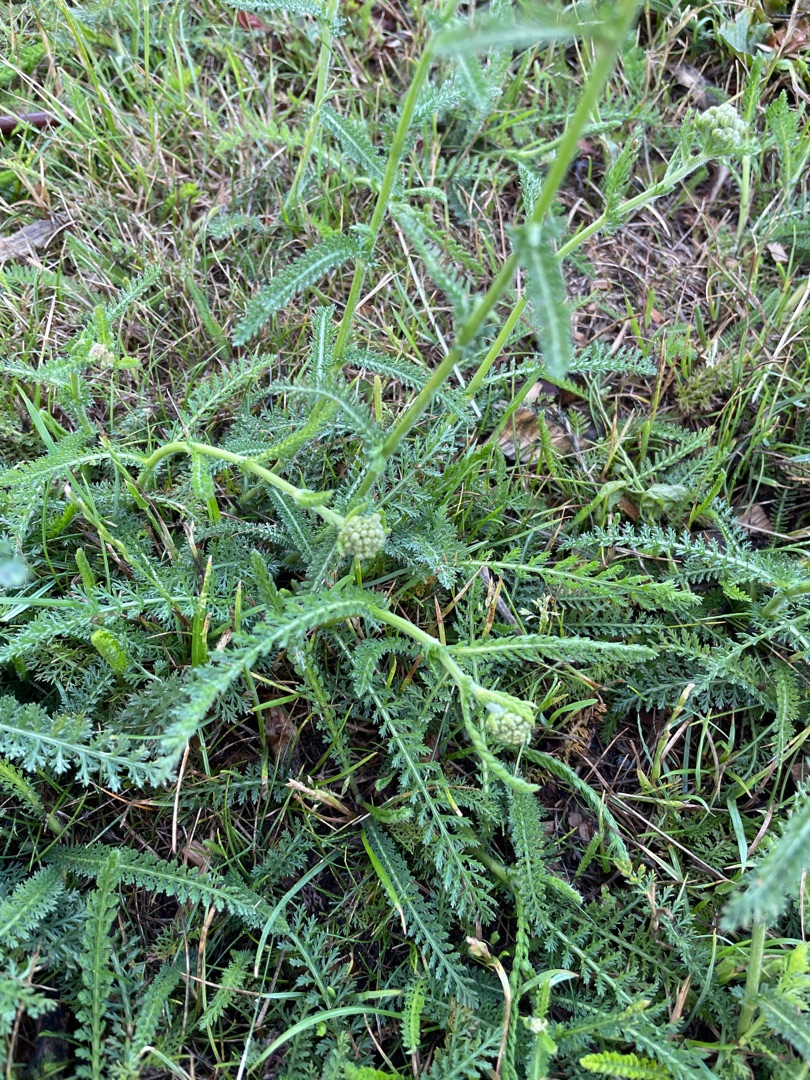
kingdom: Plantae
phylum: Tracheophyta
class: Magnoliopsida
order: Asterales
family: Asteraceae
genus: Achillea
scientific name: Achillea millefolium
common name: Almindelig røllike
